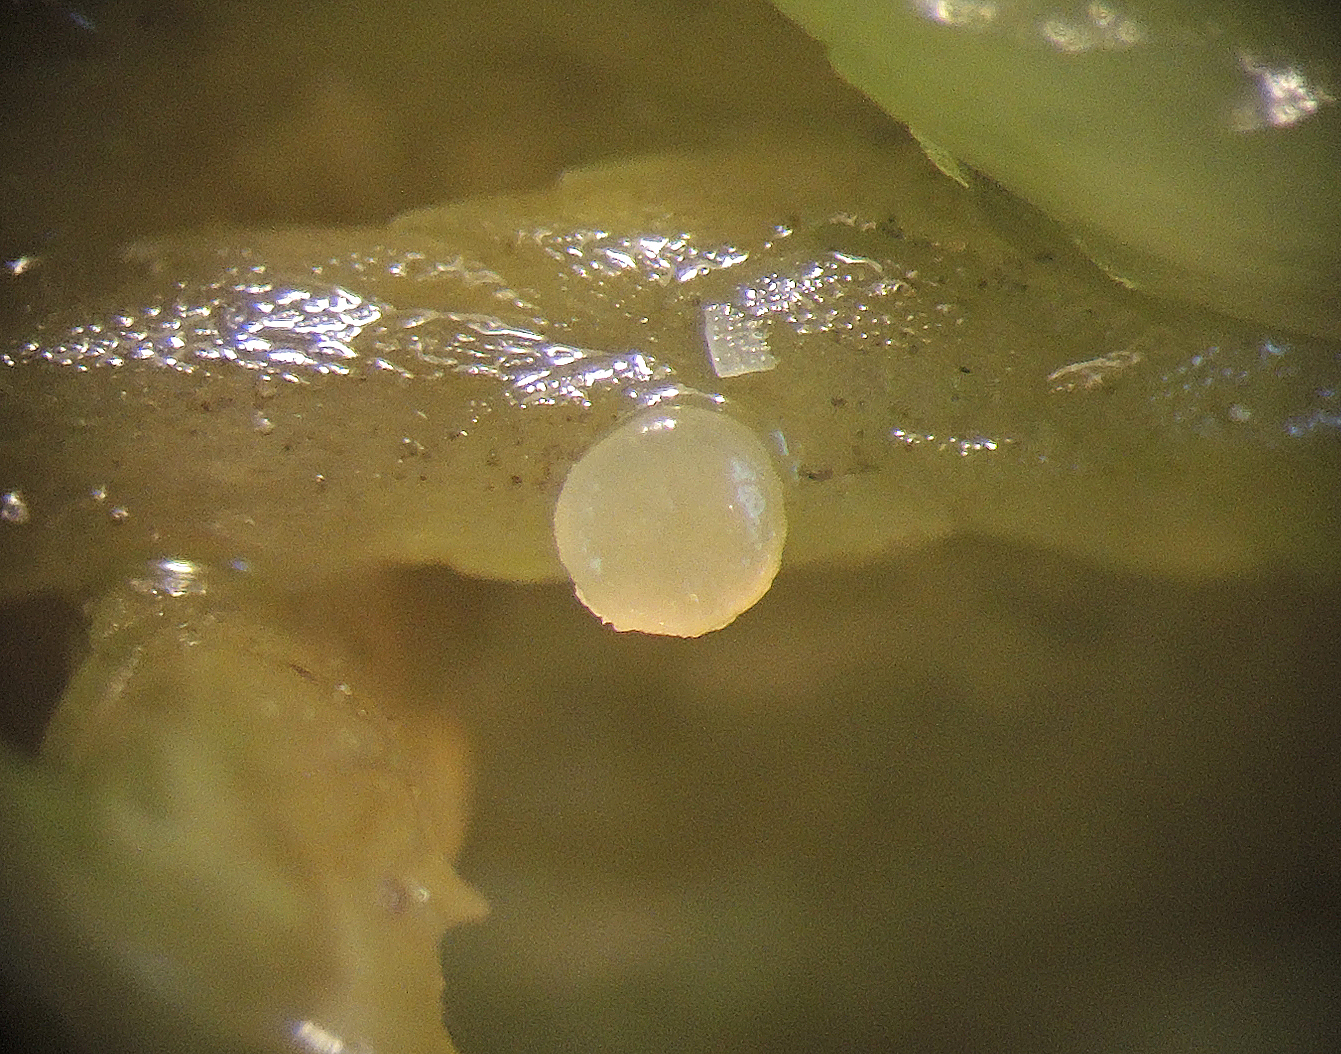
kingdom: Fungi
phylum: Ascomycota
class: Leotiomycetes
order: Helotiales
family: Tricladiaceae
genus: Helotium
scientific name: Helotium schimperi
